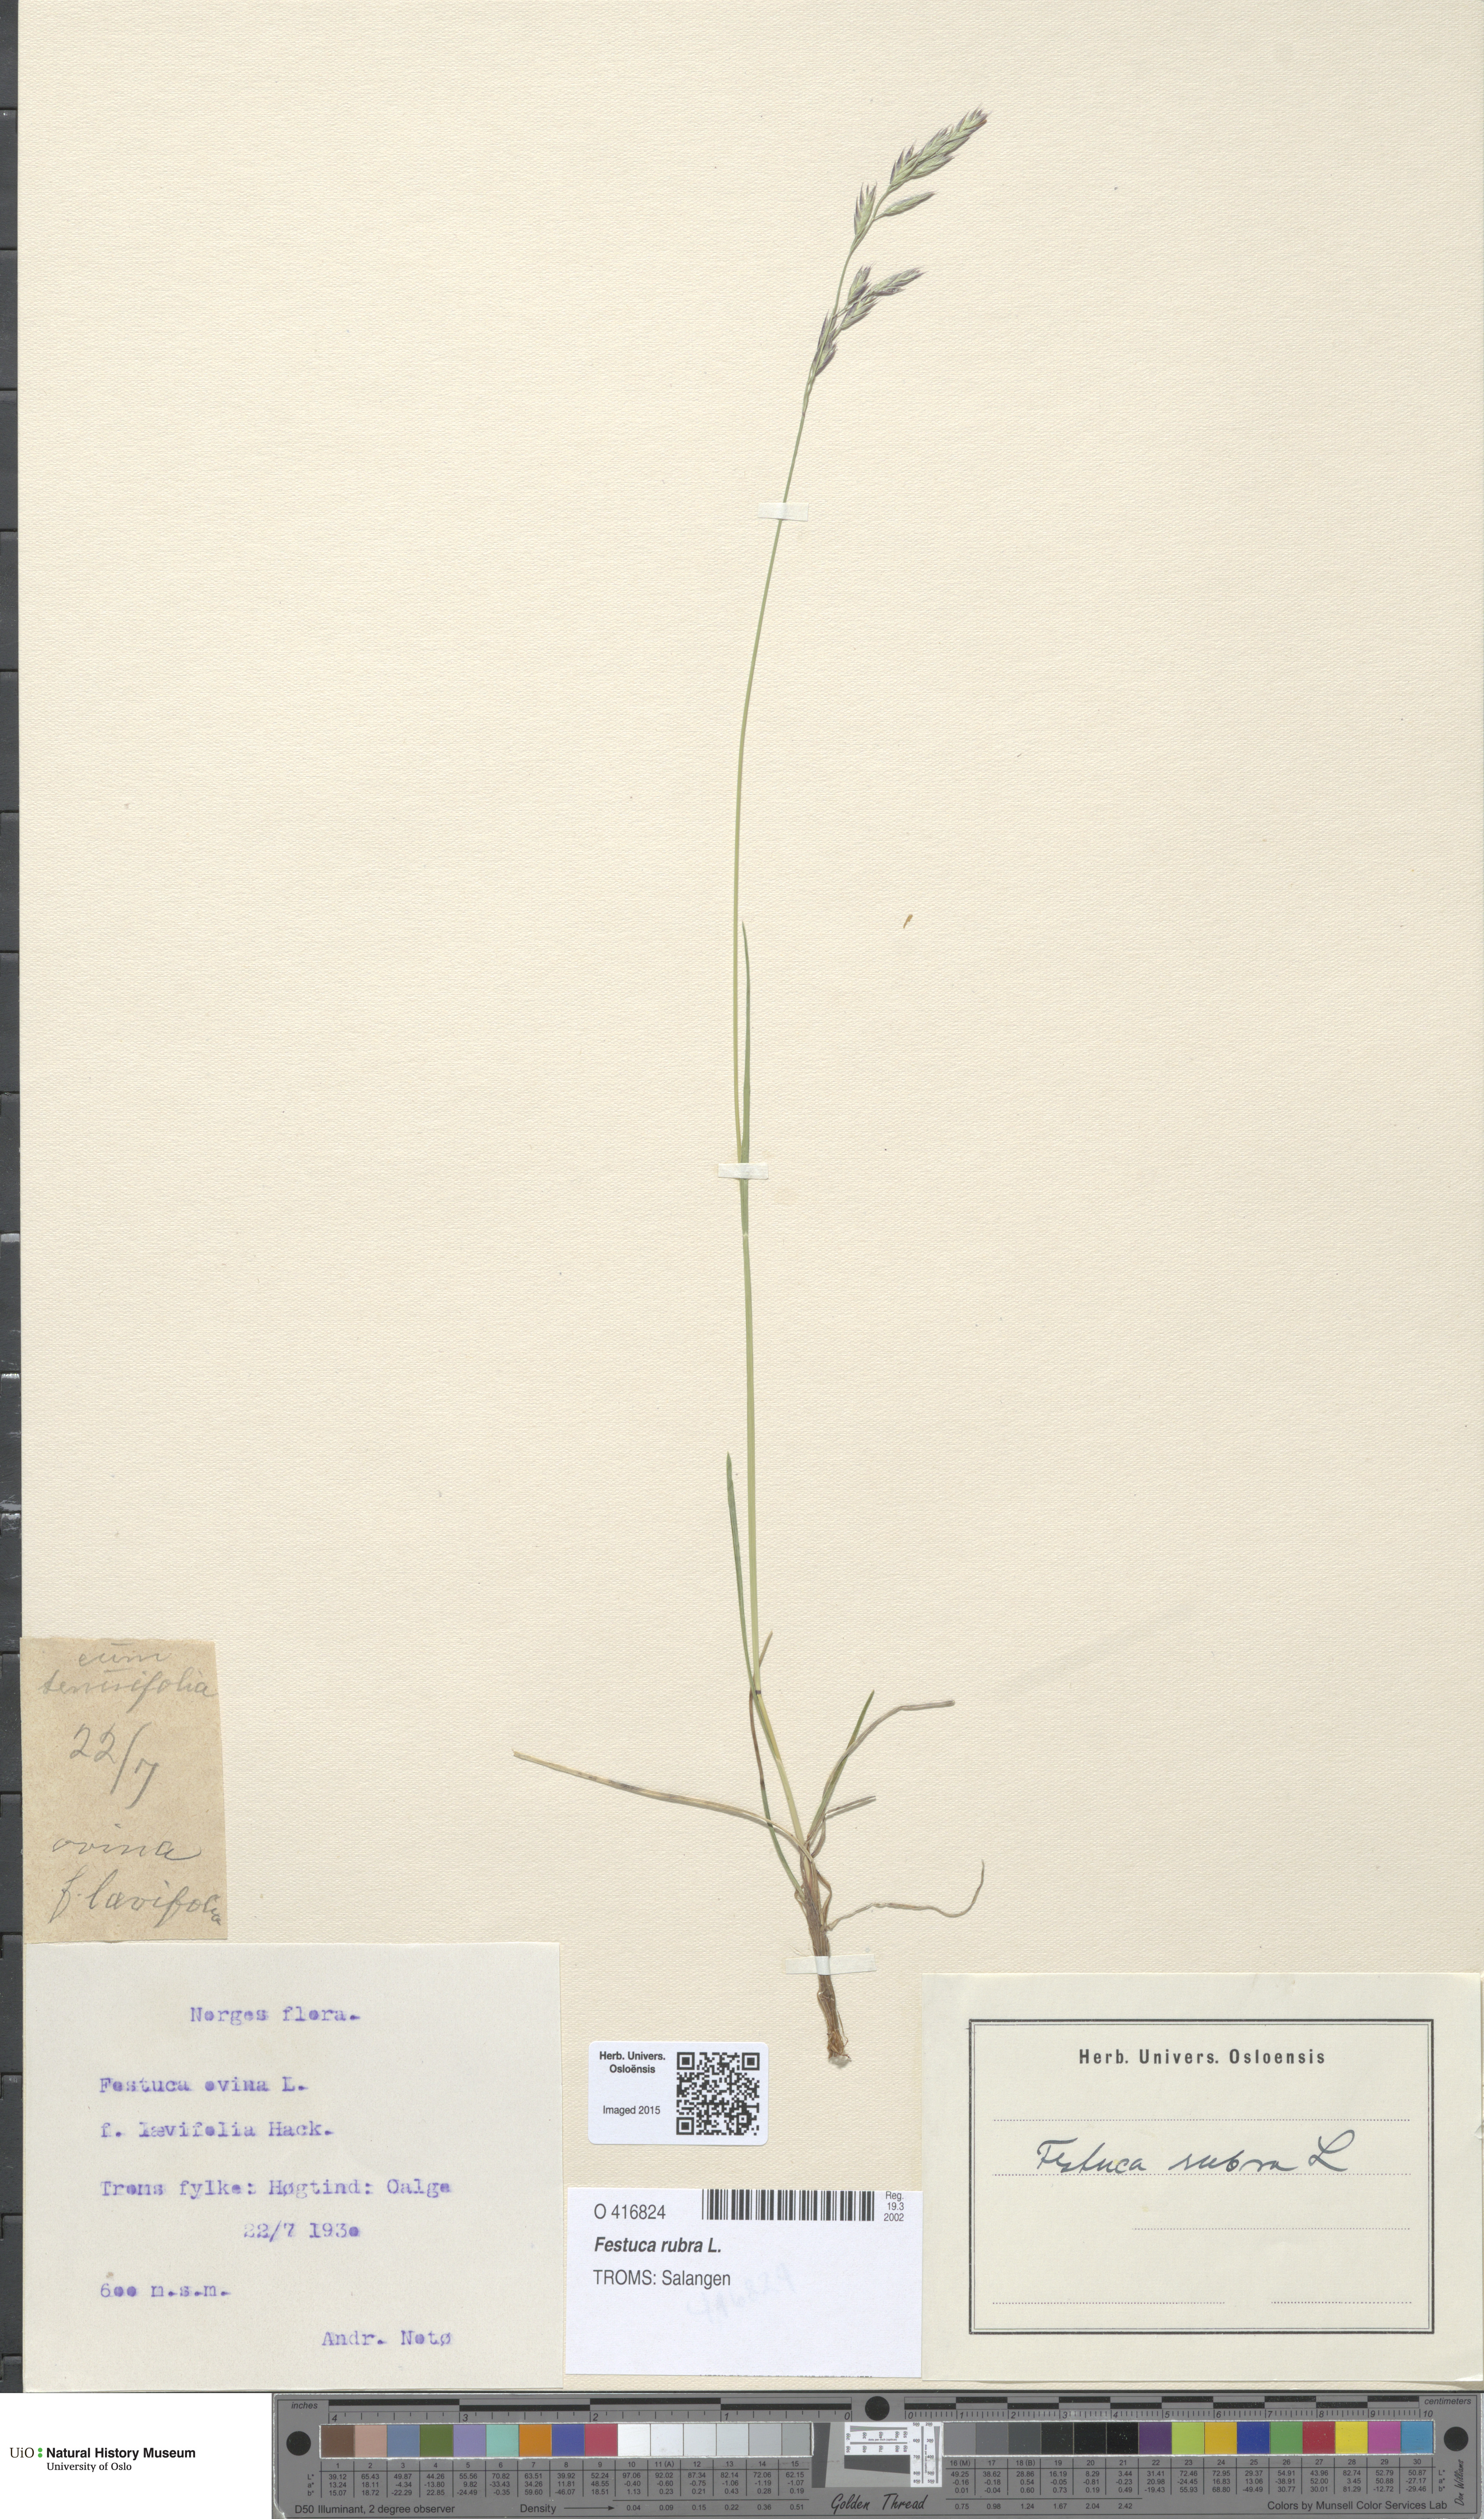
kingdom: Plantae
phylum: Tracheophyta
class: Liliopsida
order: Poales
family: Poaceae
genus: Festuca
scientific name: Festuca rubra
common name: Red fescue
